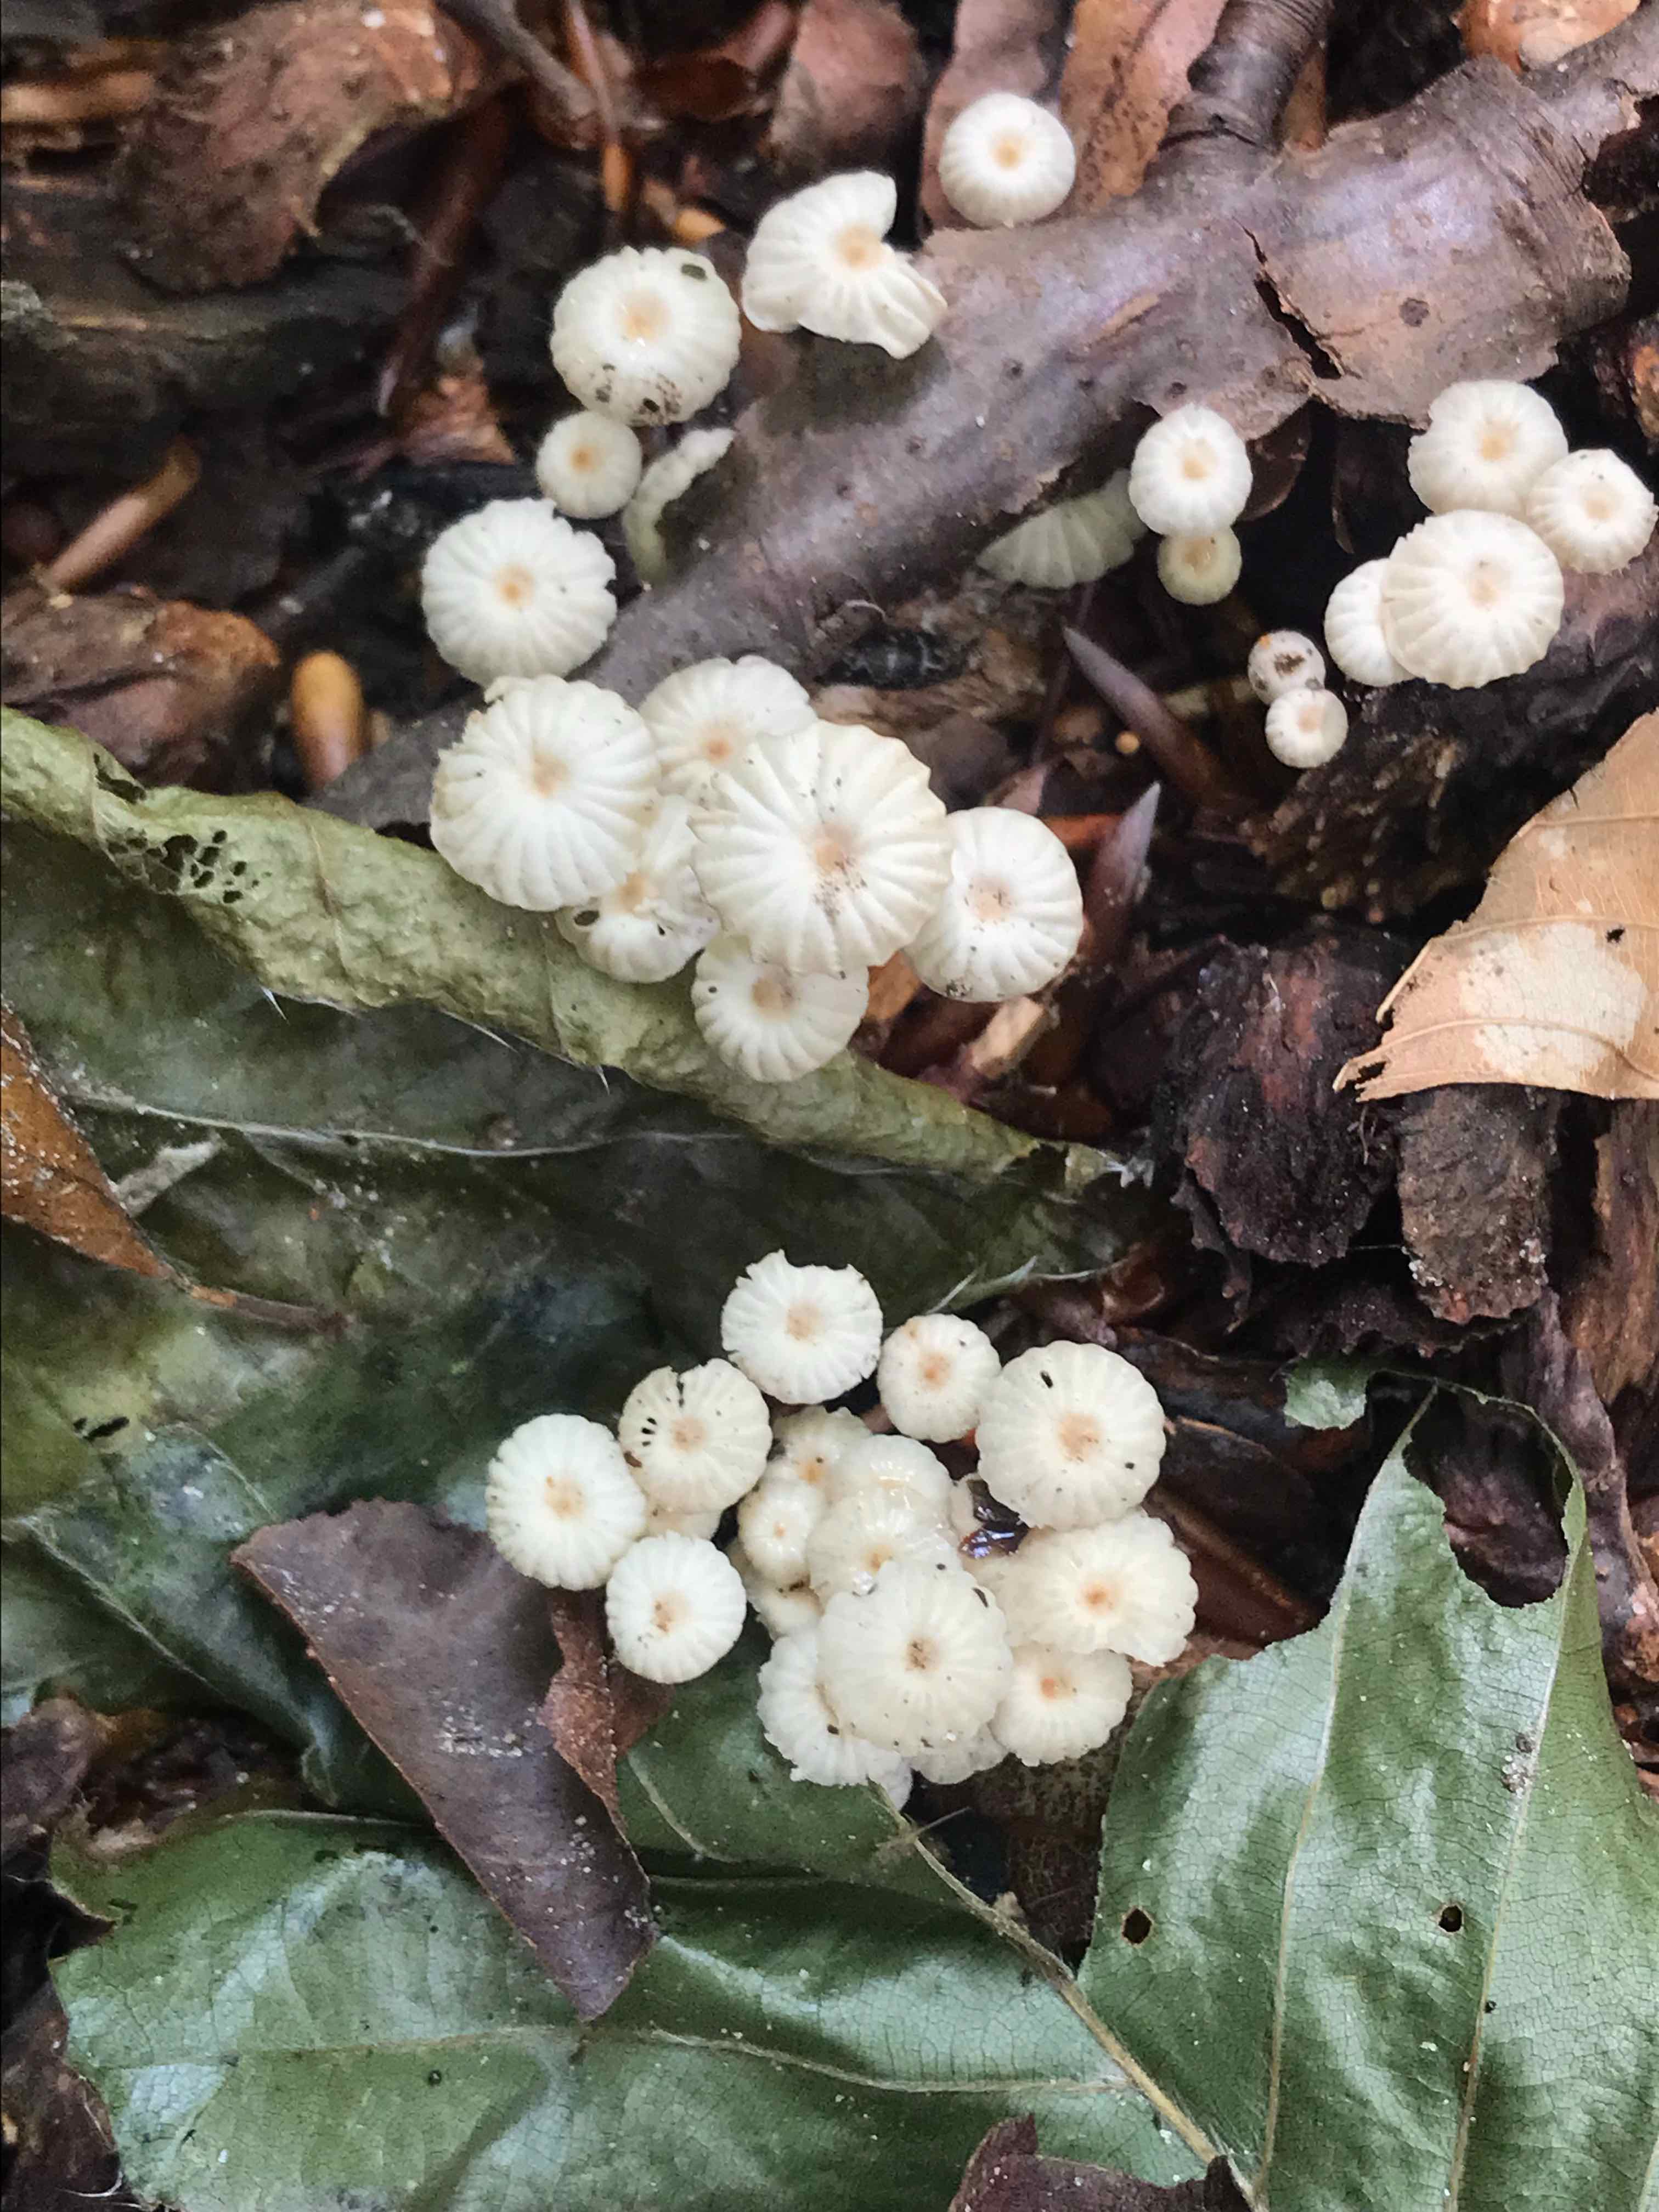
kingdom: Fungi
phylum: Basidiomycota
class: Agaricomycetes
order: Agaricales
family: Marasmiaceae
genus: Marasmius
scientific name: Marasmius rotula
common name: hjul-bruskhat
